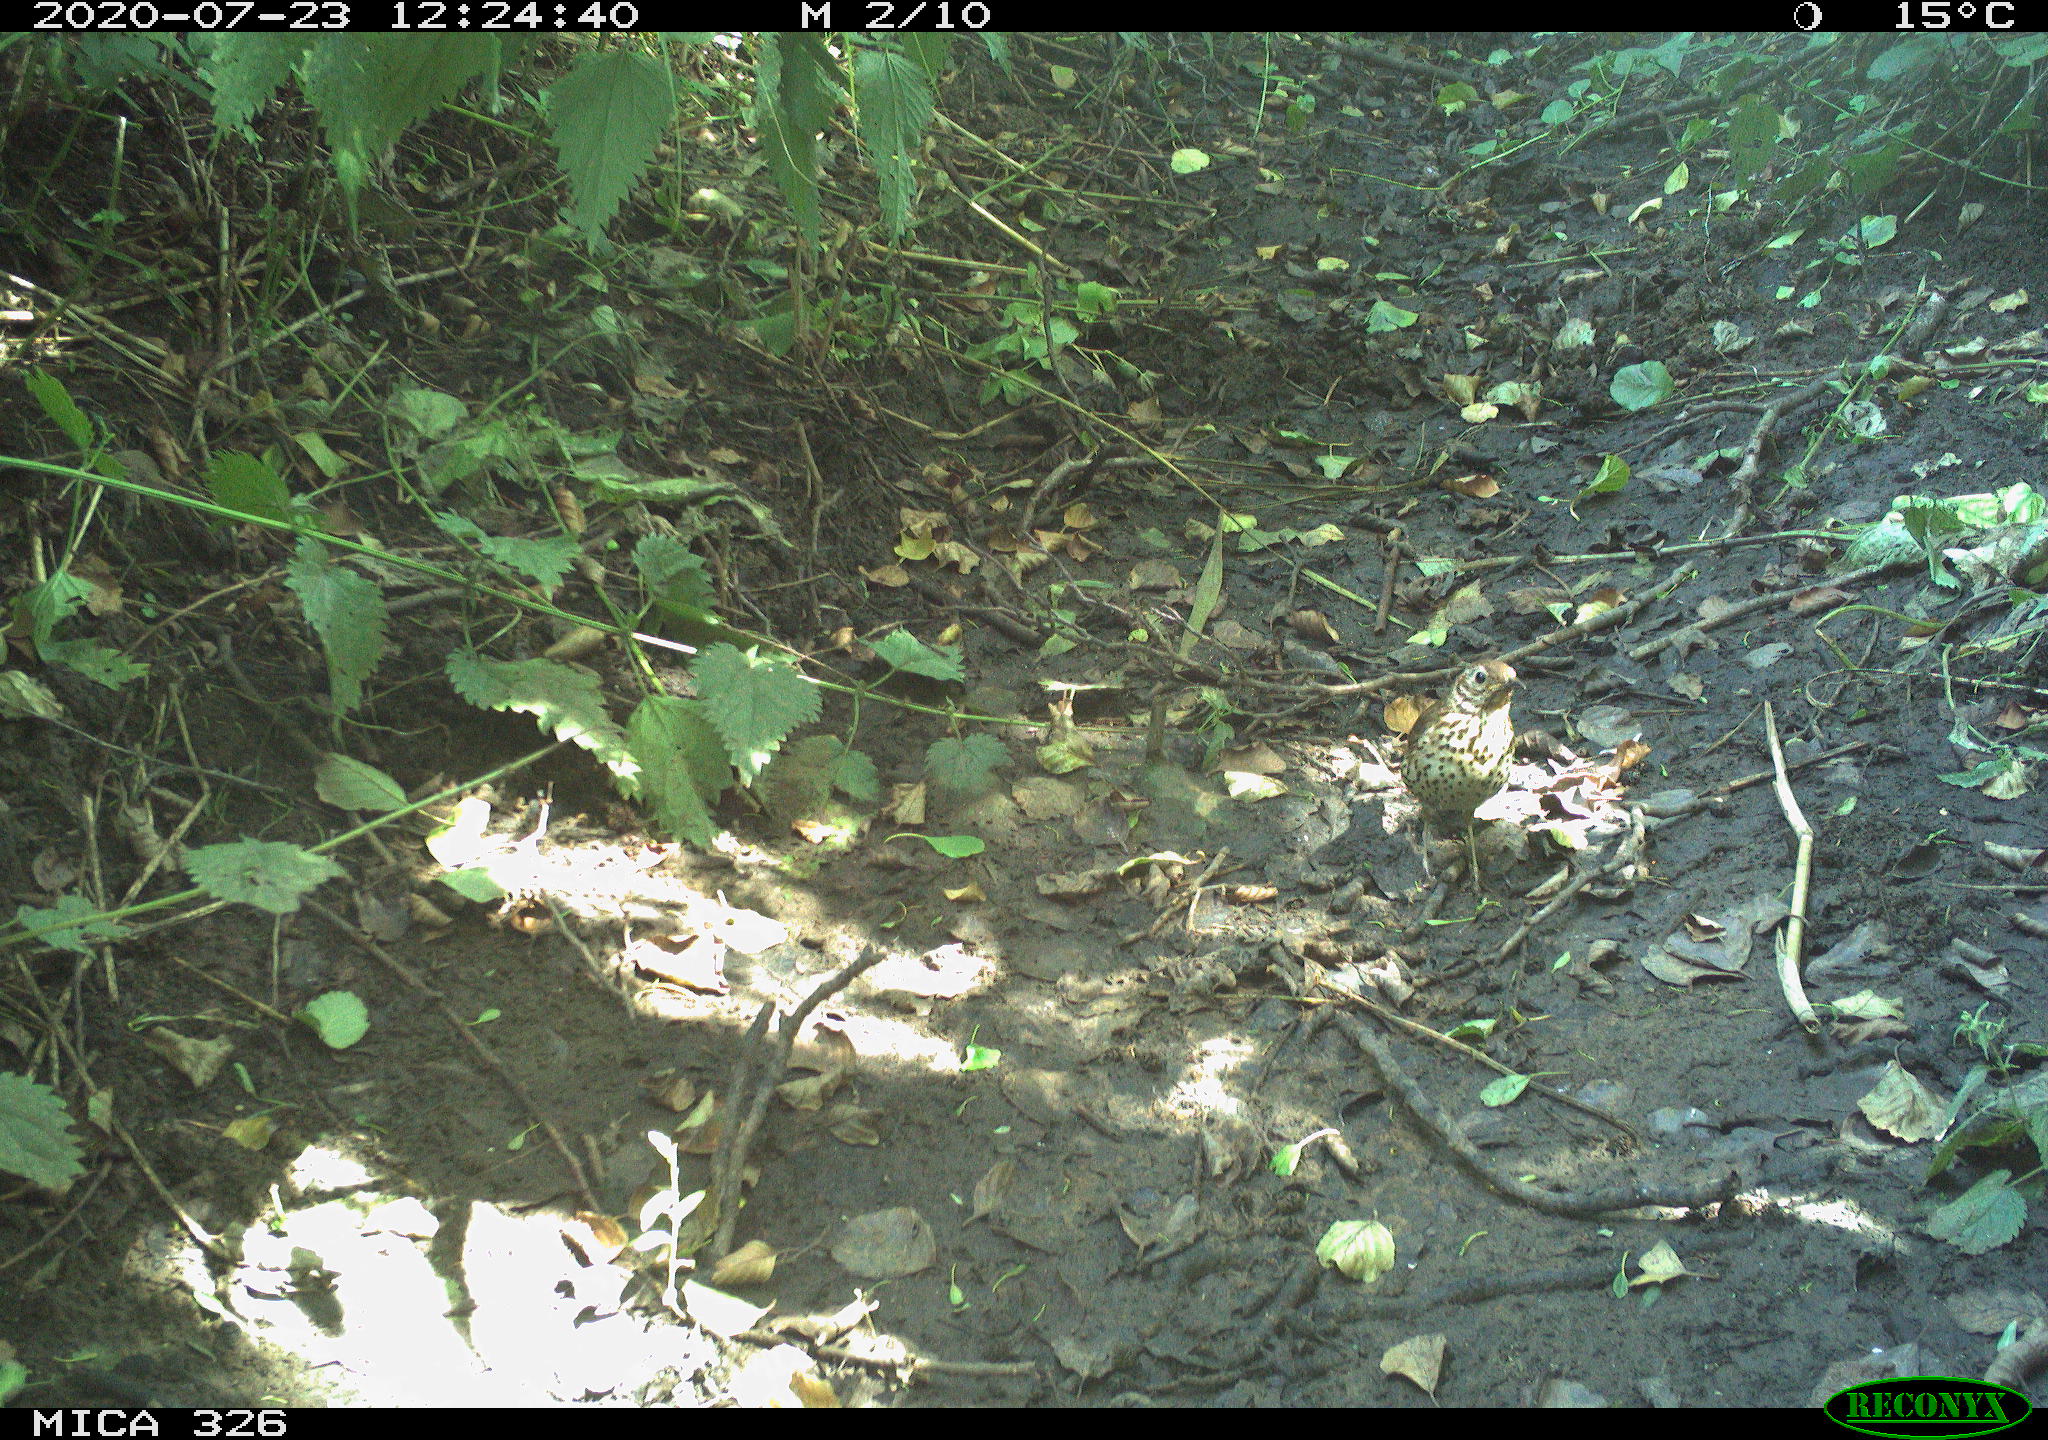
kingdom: Animalia
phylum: Chordata
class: Aves
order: Passeriformes
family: Turdidae
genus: Turdus
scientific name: Turdus philomelos
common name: Song thrush
